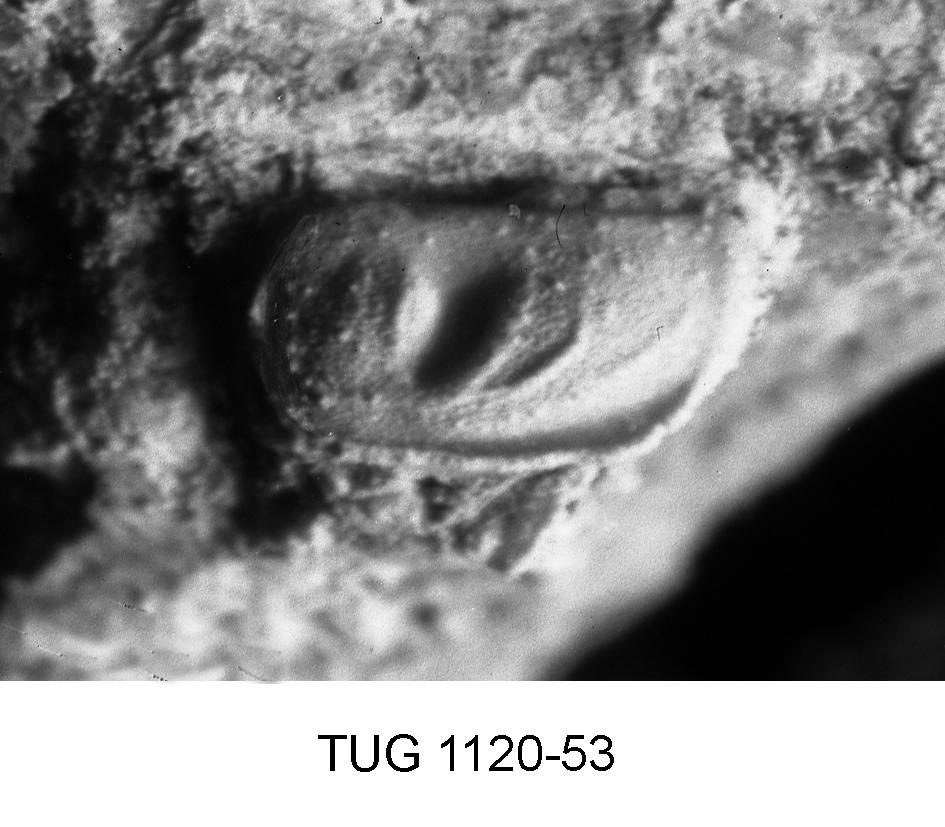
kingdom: Animalia
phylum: Arthropoda
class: Ostracoda
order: Palaeocopida
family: Ctenonotellidae
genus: Pseudostrepula
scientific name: Pseudostrepula
